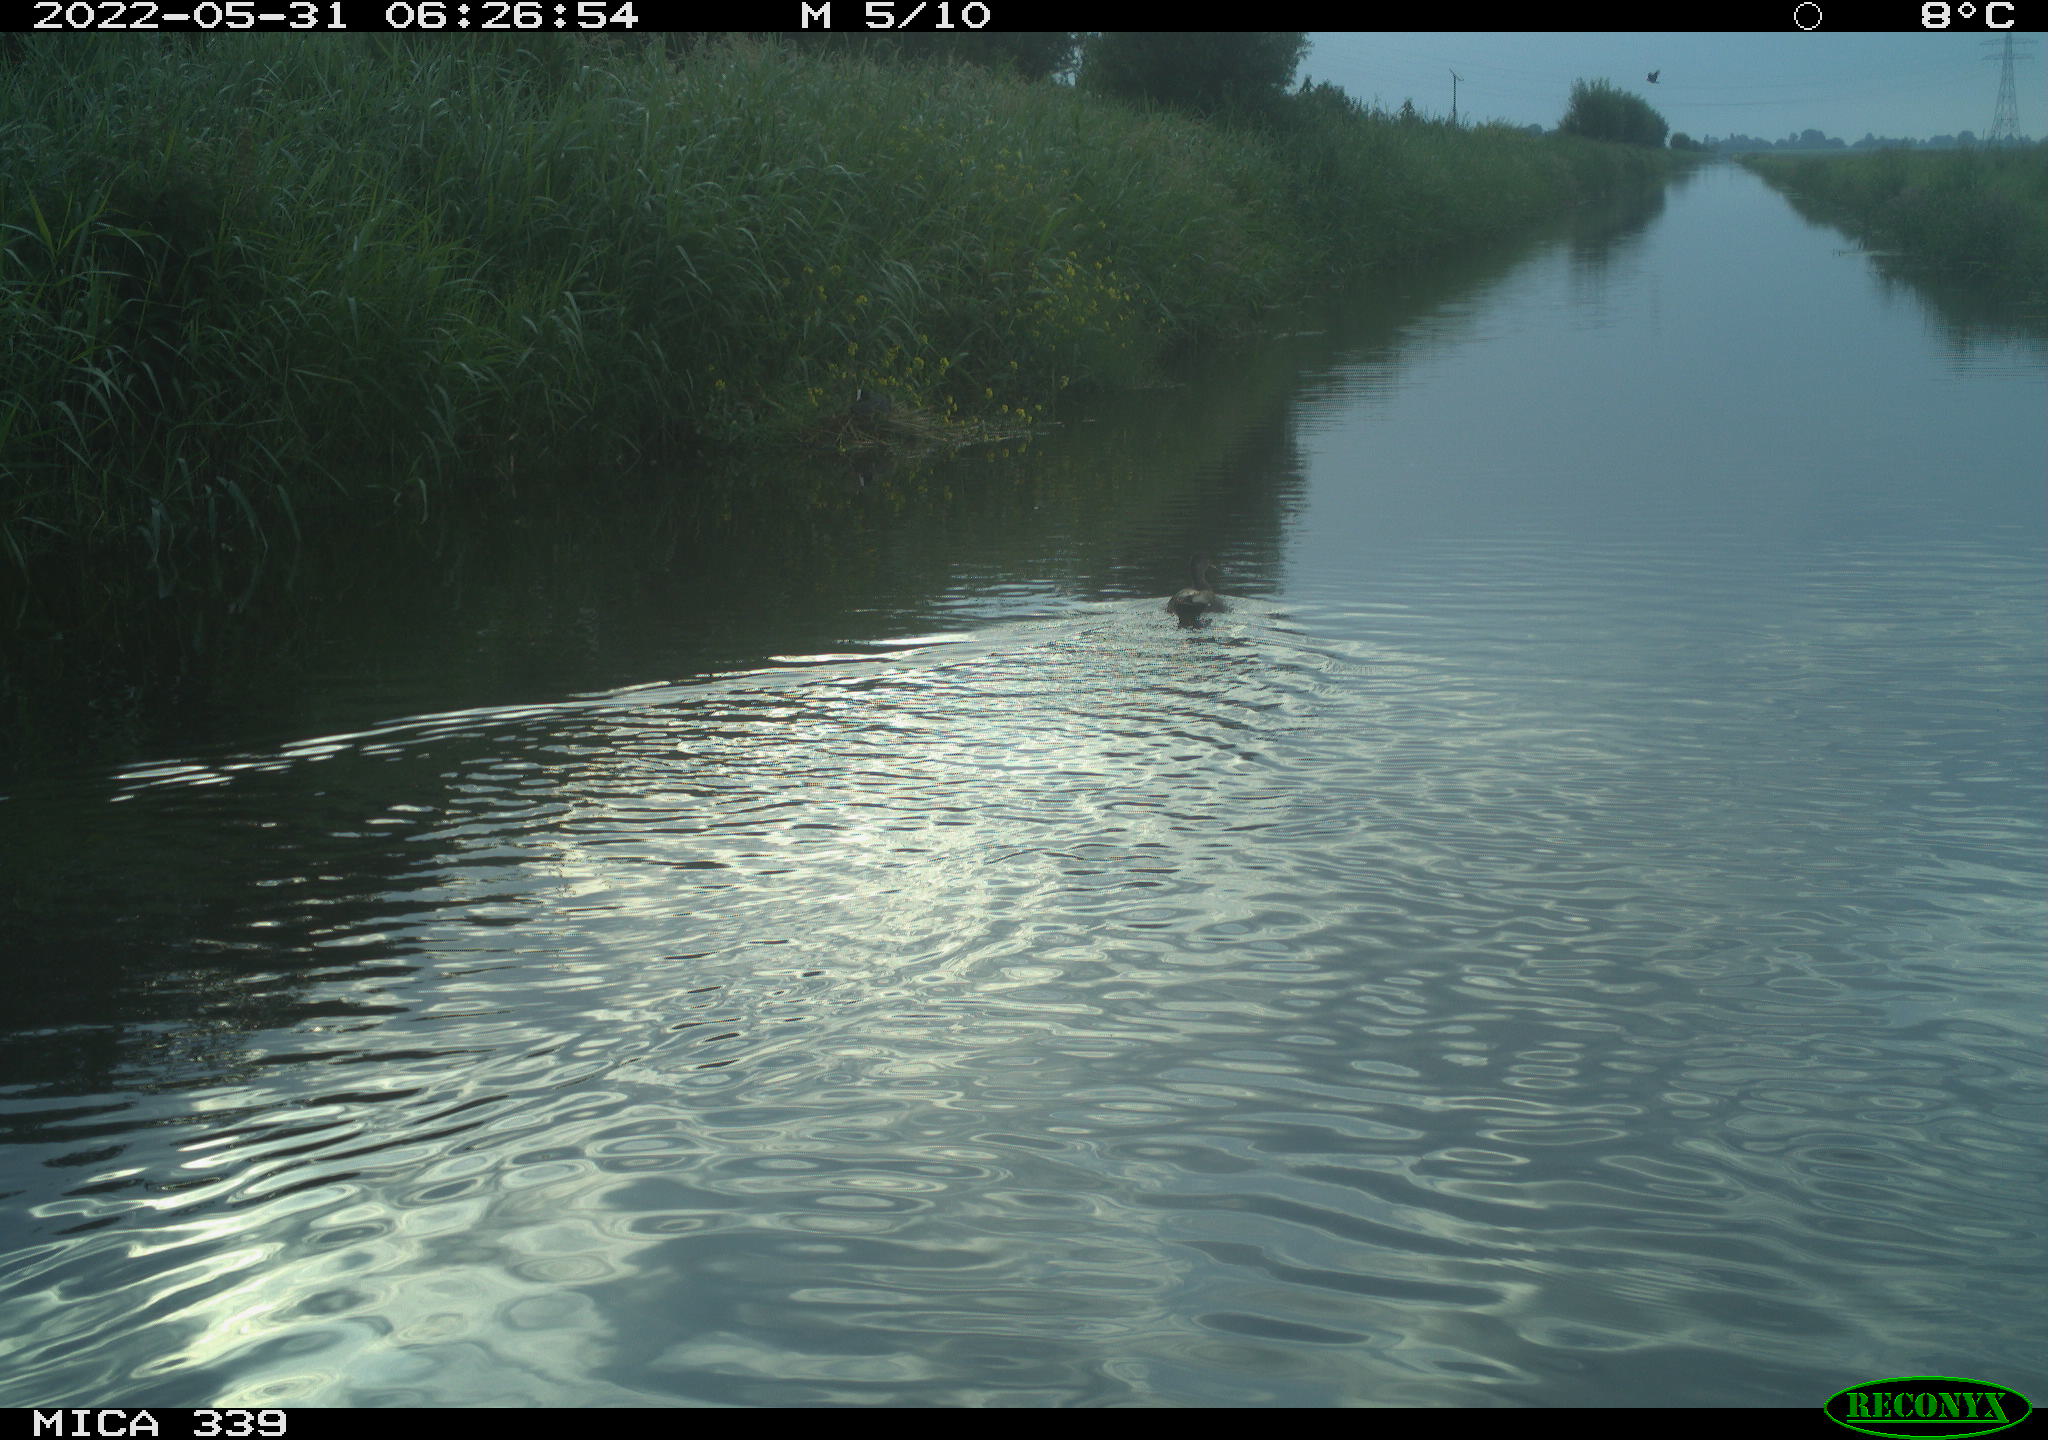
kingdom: Animalia
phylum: Chordata
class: Aves
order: Anseriformes
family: Anatidae
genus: Anas
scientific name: Anas platyrhynchos
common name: Mallard
